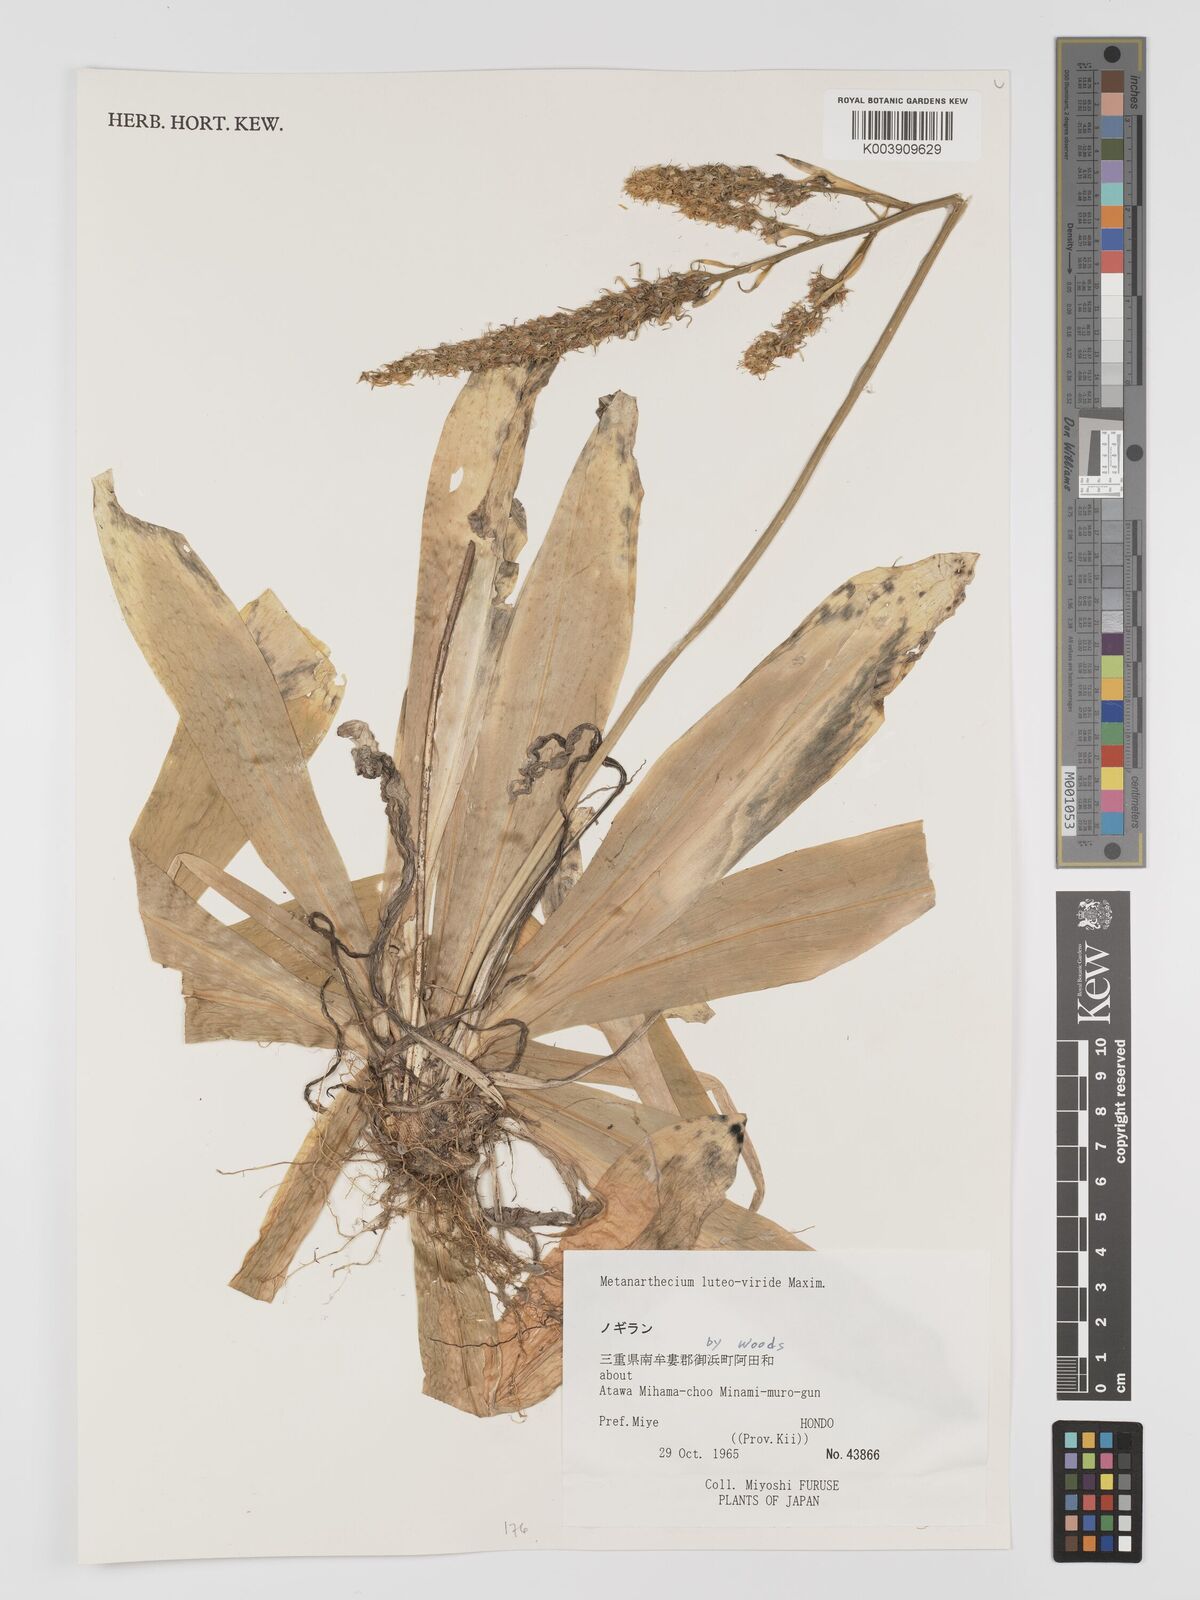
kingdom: Plantae
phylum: Tracheophyta
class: Liliopsida
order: Dioscoreales
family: Nartheciaceae
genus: Metanarthecium
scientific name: Metanarthecium luteoviride
